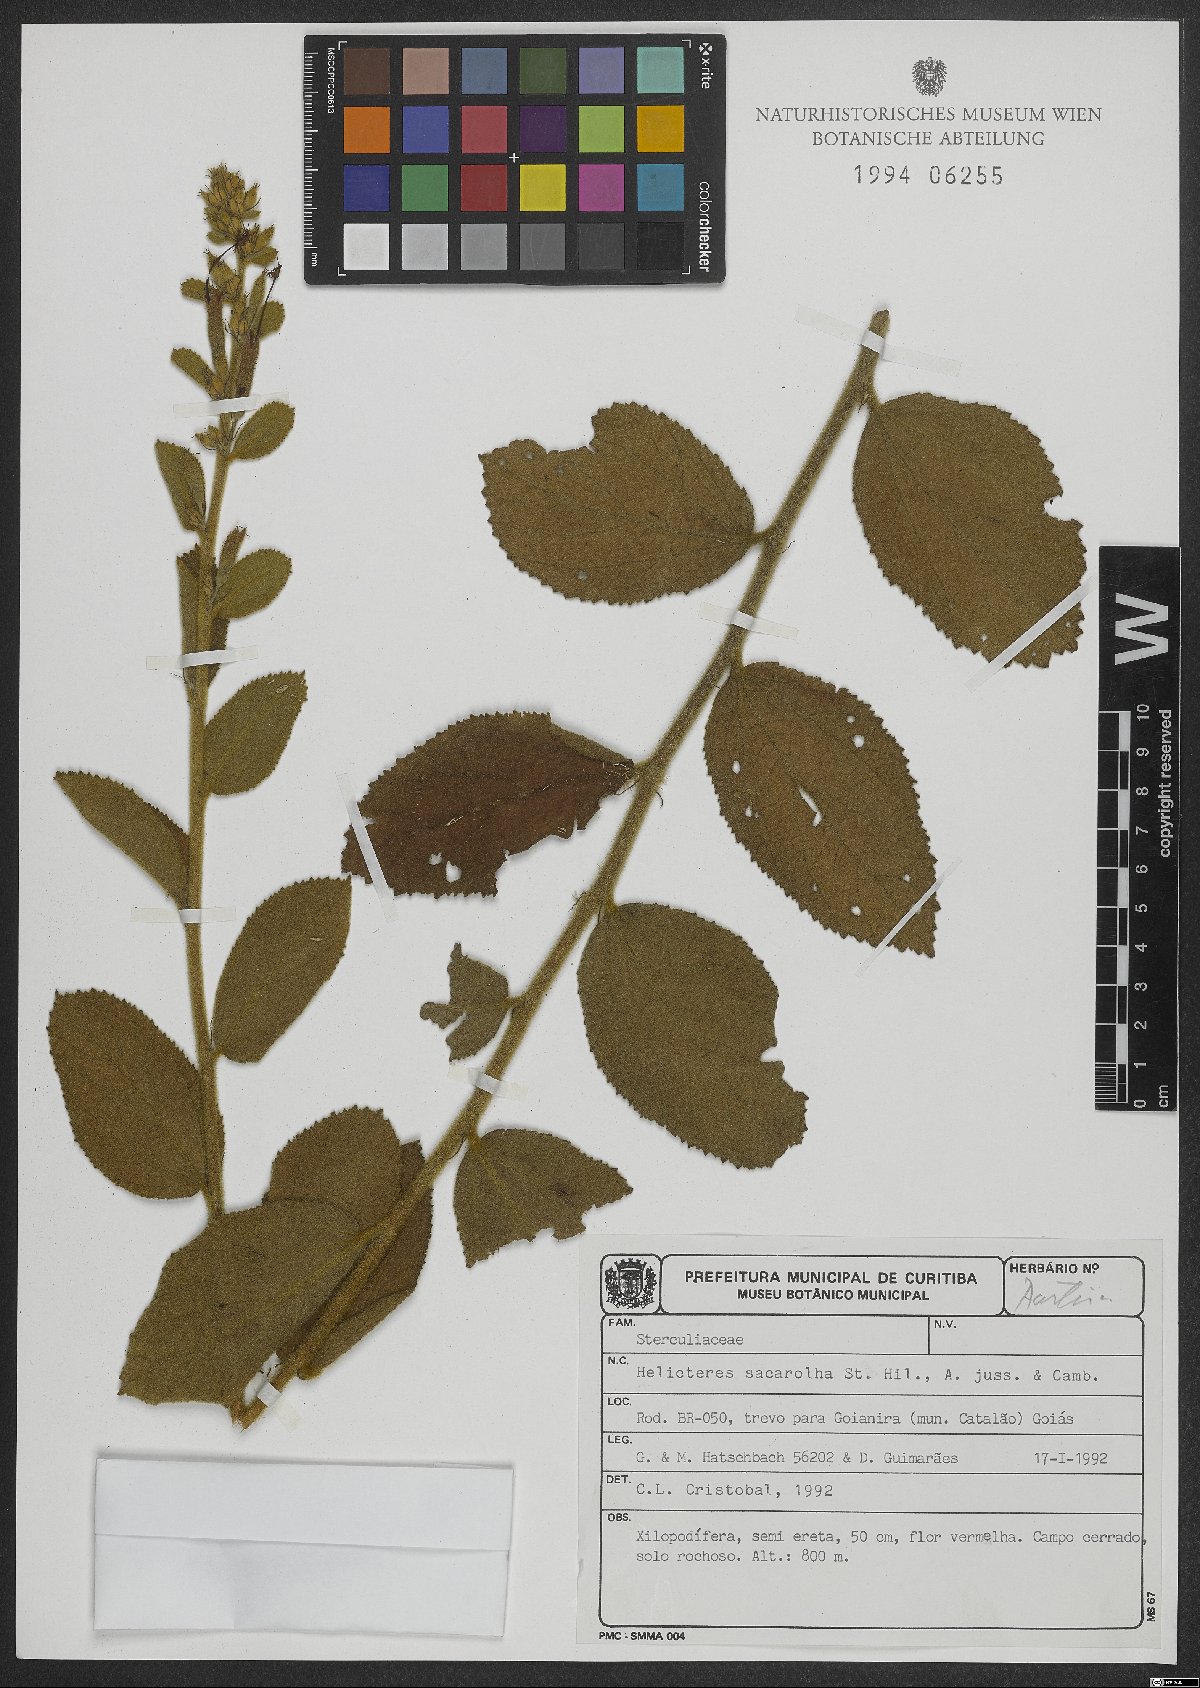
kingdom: Plantae
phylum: Tracheophyta
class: Magnoliopsida
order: Malvales
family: Malvaceae
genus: Helicteres
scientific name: Helicteres sacarolha
